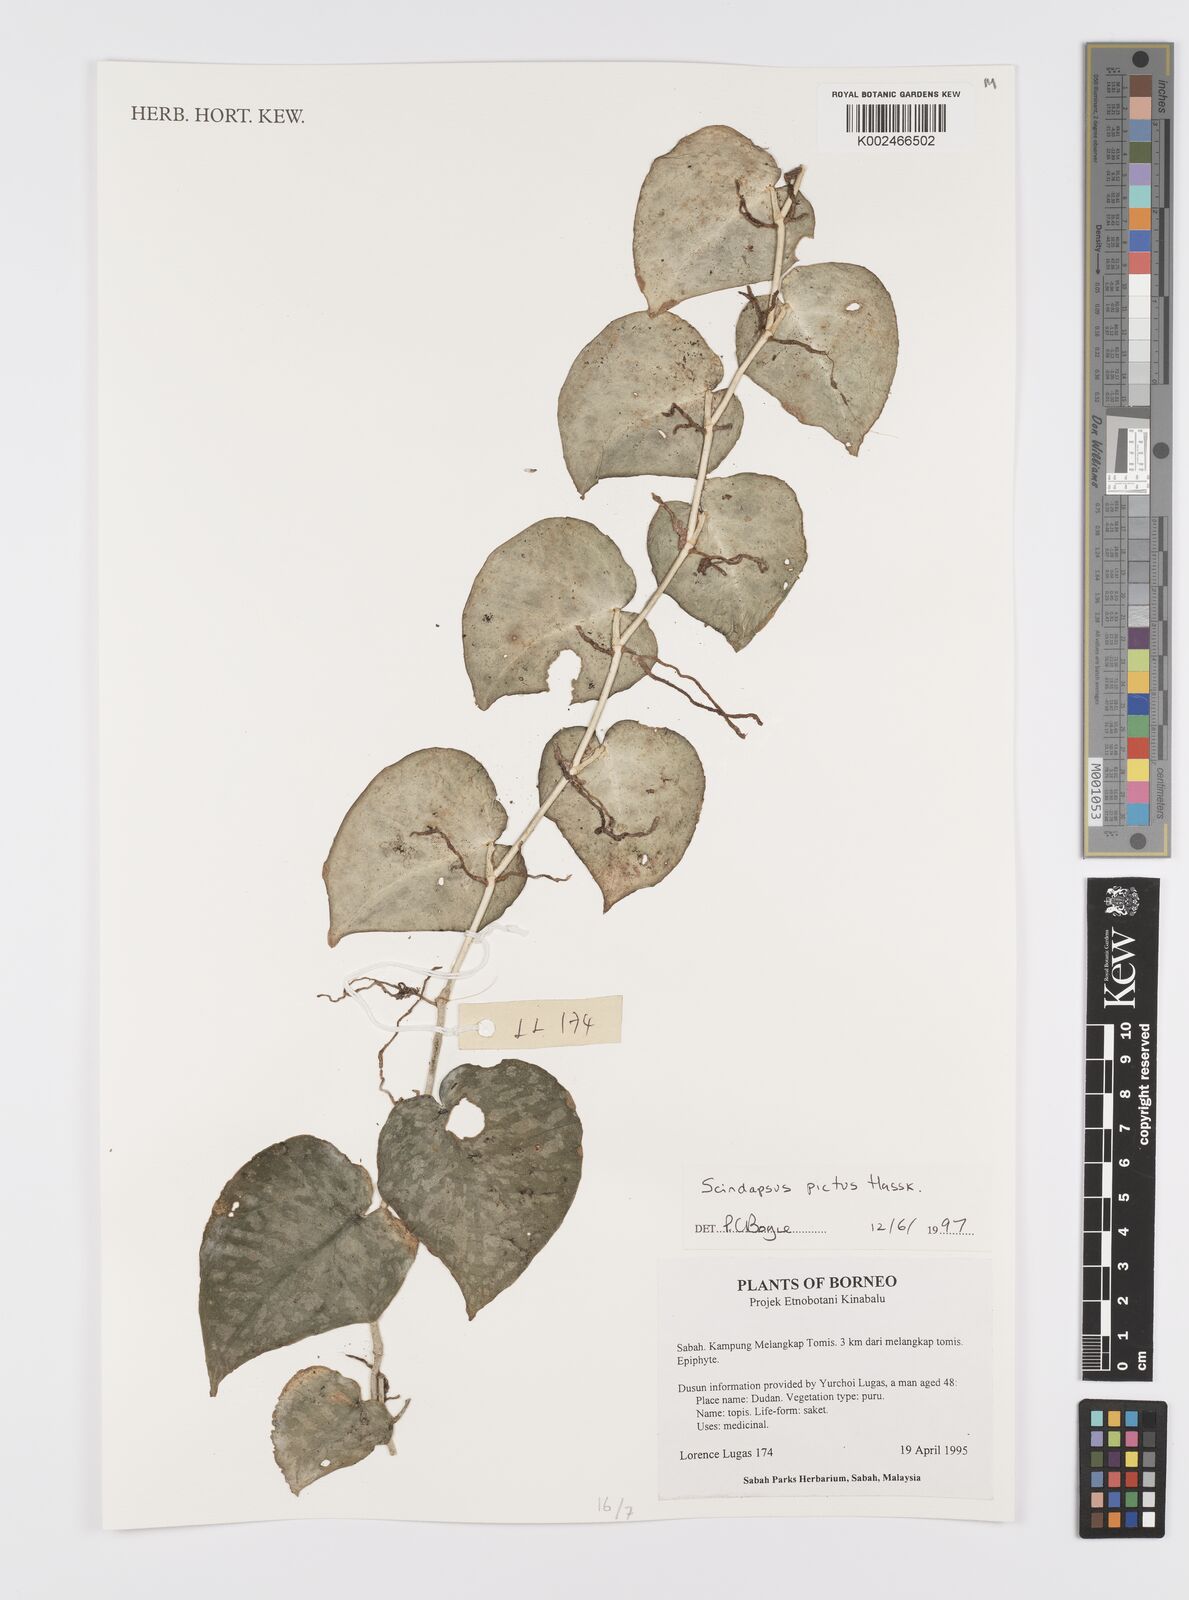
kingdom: Plantae
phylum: Tracheophyta
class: Liliopsida
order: Alismatales
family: Araceae
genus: Scindapsus
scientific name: Scindapsus pictus
